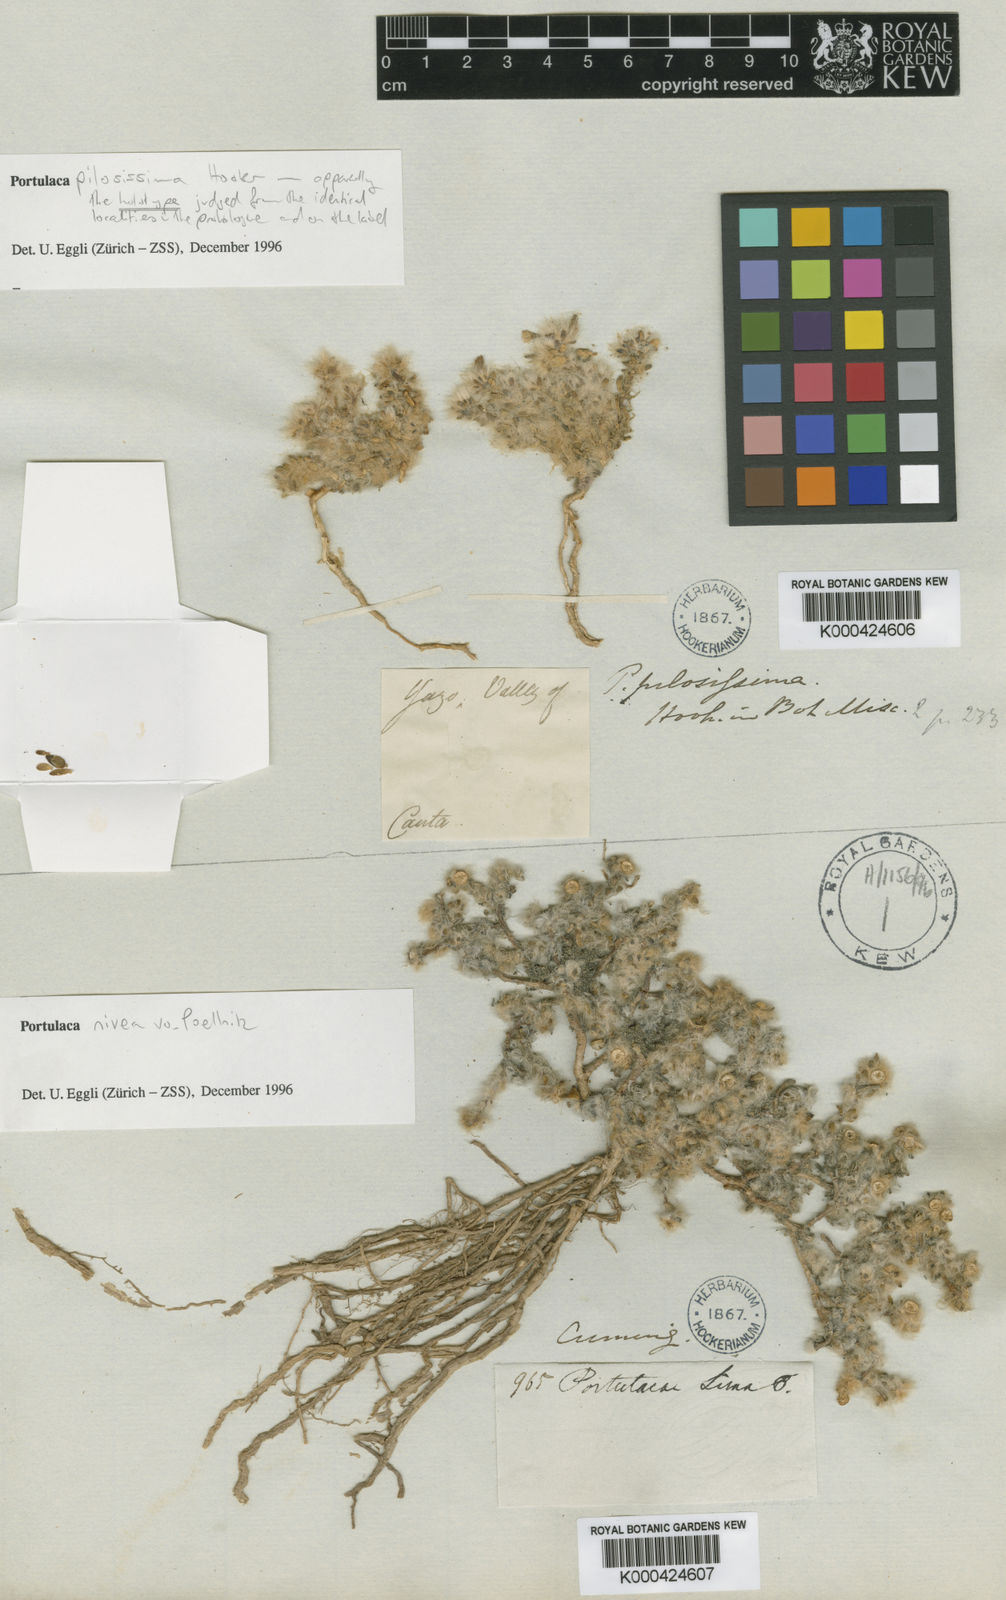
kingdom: Plantae
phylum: Tracheophyta
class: Magnoliopsida
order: Caryophyllales
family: Portulacaceae
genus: Portulaca
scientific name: Portulaca pilosa
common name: Kiss me quick
